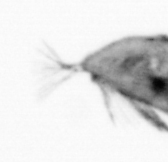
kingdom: Animalia
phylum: Arthropoda
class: Maxillopoda
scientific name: Maxillopoda
